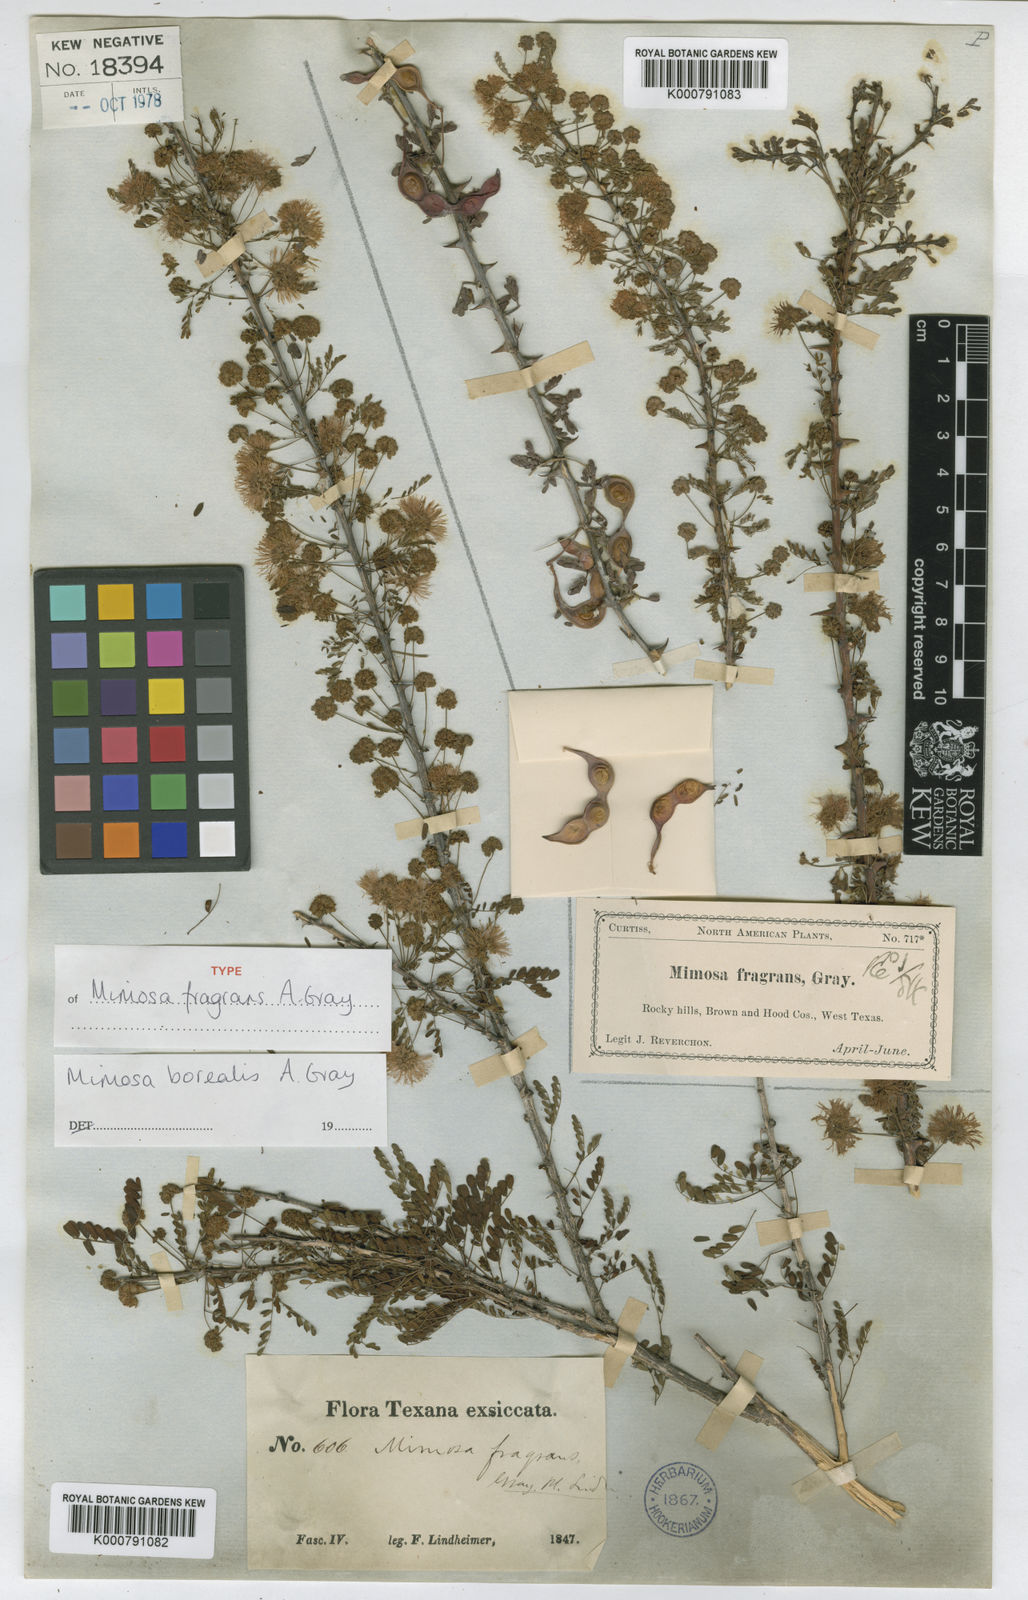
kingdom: Plantae
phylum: Tracheophyta
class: Magnoliopsida
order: Fabales
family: Fabaceae
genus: Mimosa
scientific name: Mimosa borealis
